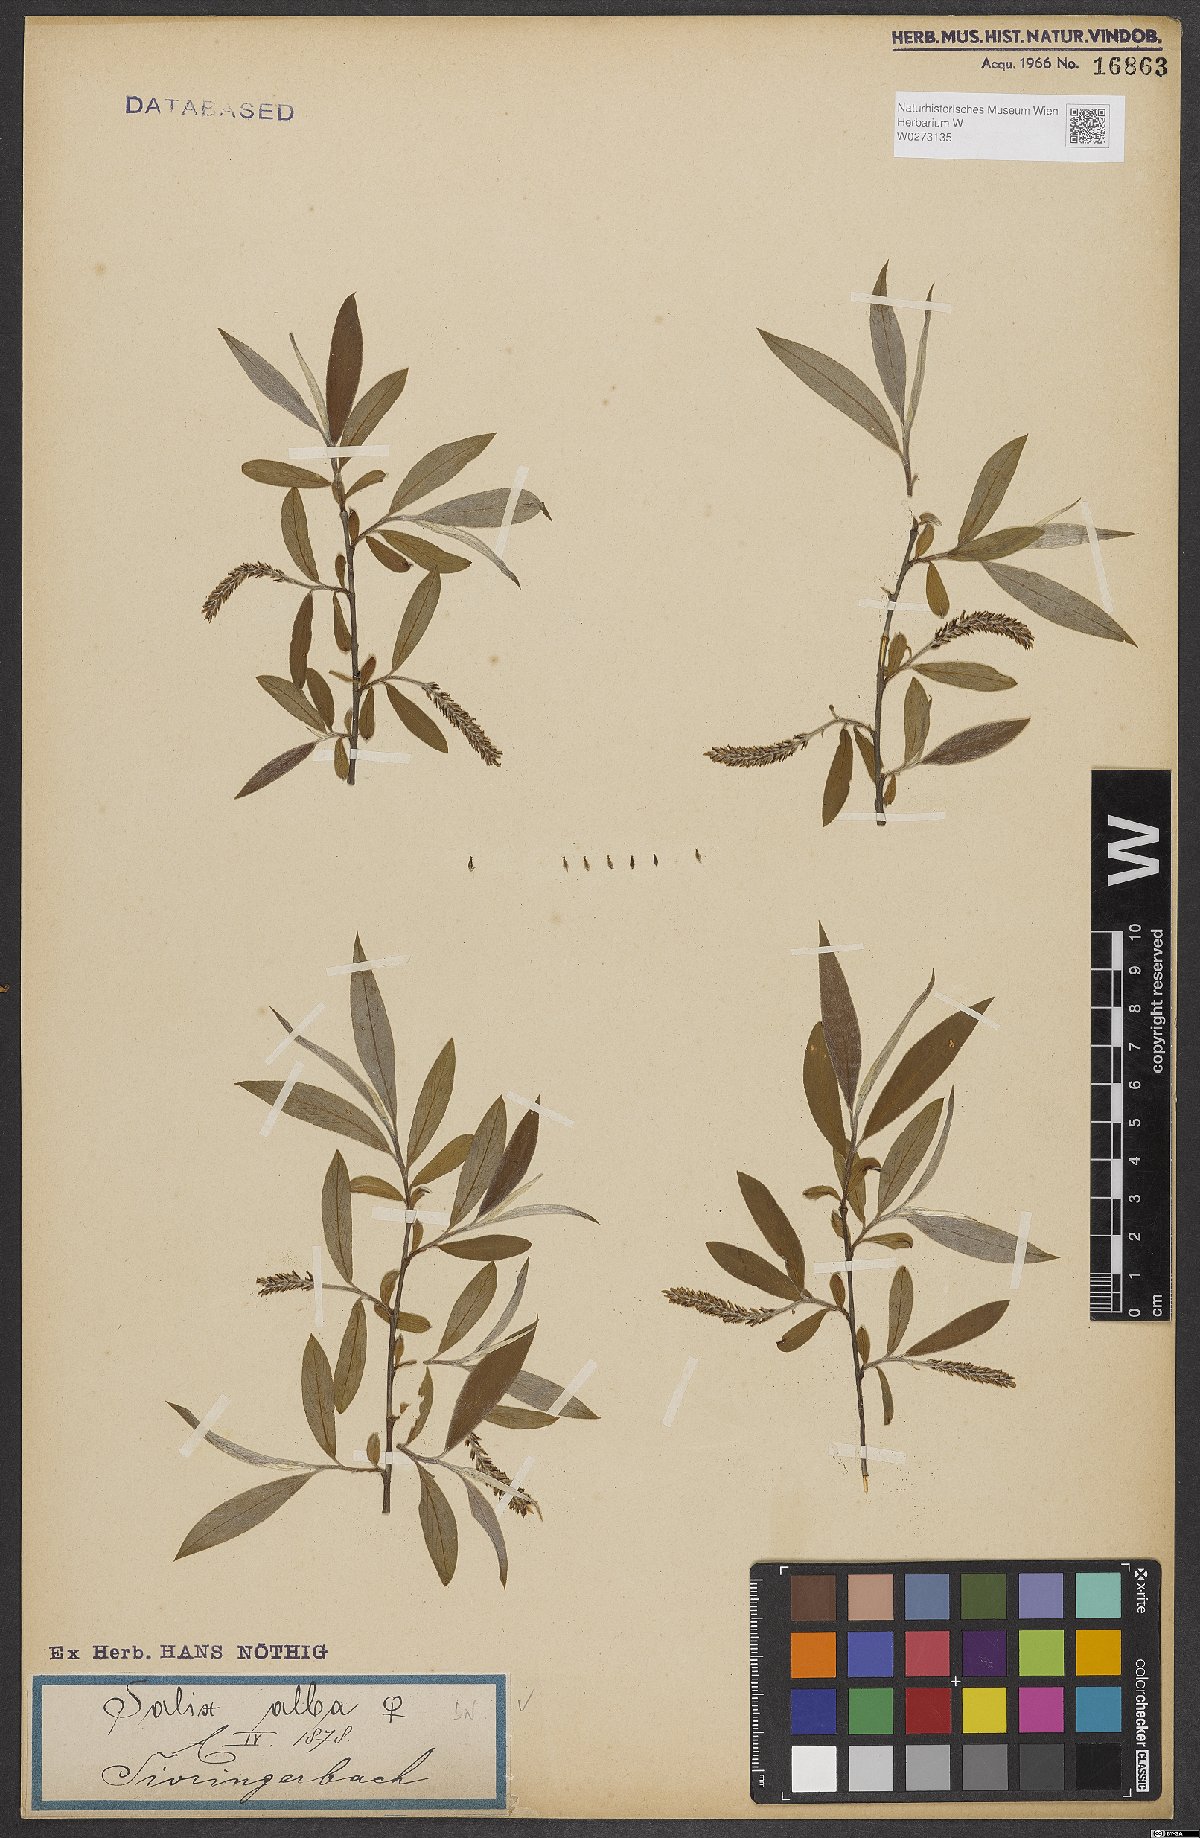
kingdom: Plantae
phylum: Tracheophyta
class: Magnoliopsida
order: Malpighiales
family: Salicaceae
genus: Salix
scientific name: Salix alba
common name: White willow
